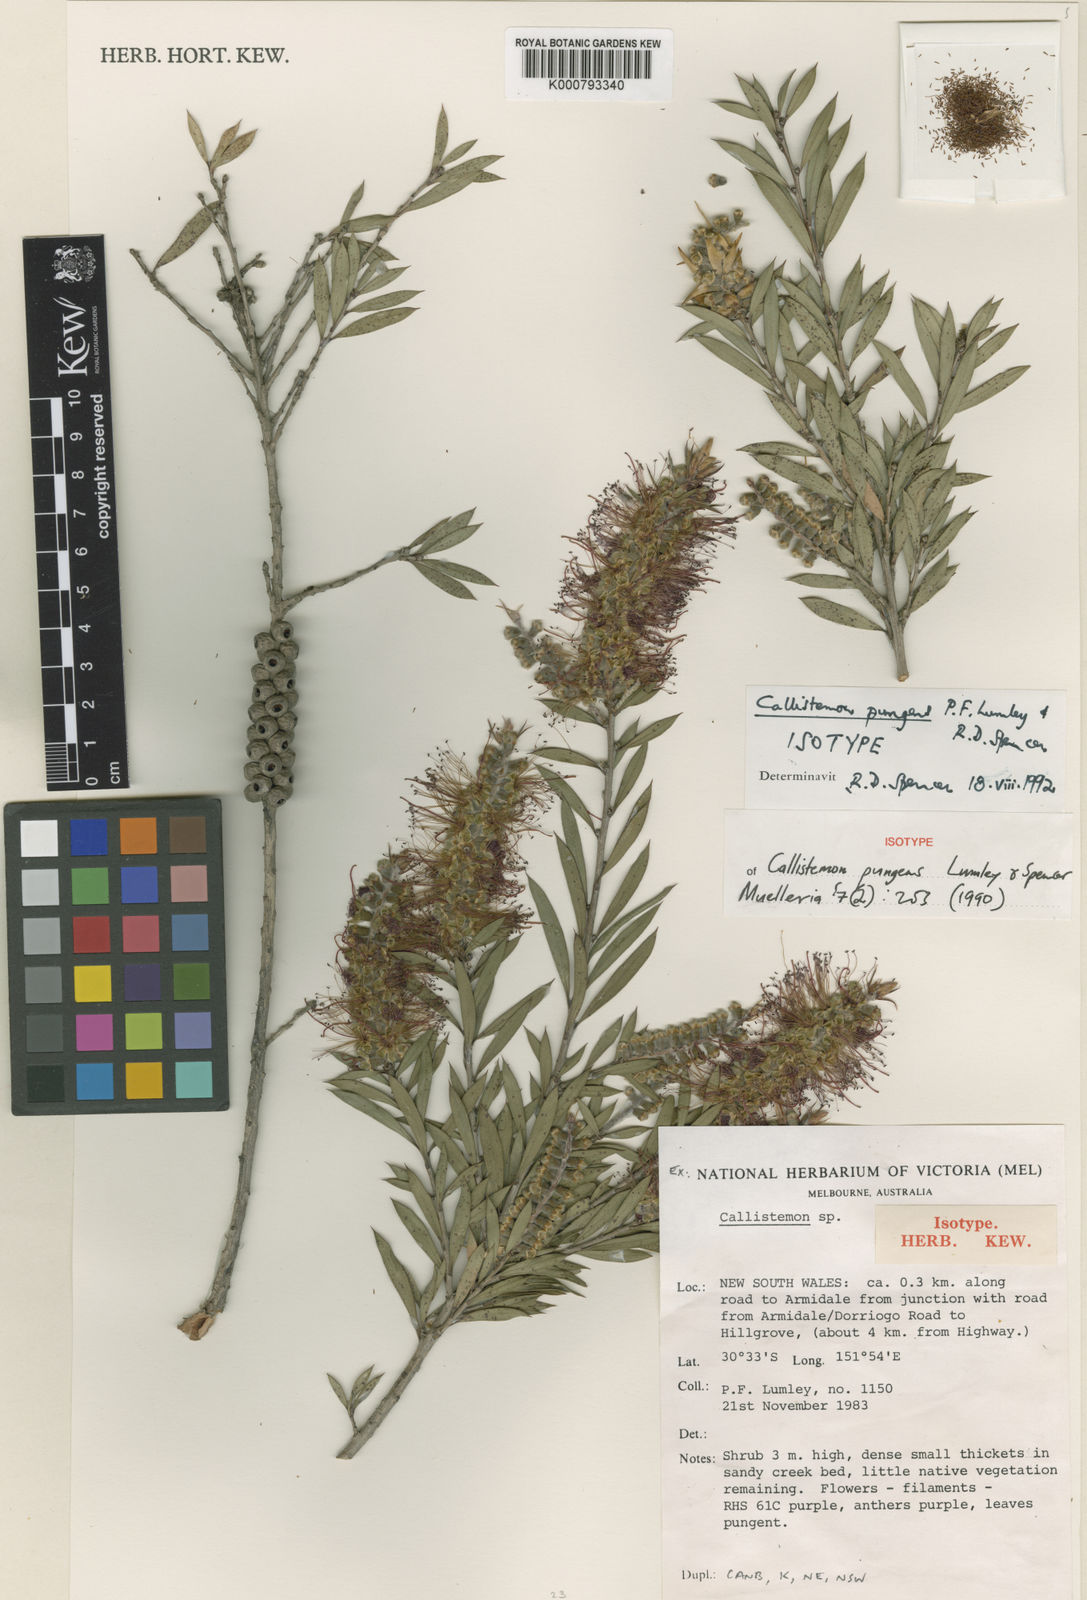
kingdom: Plantae
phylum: Tracheophyta
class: Magnoliopsida
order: Myrtales
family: Myrtaceae
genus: Callistemon
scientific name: Callistemon pungens
